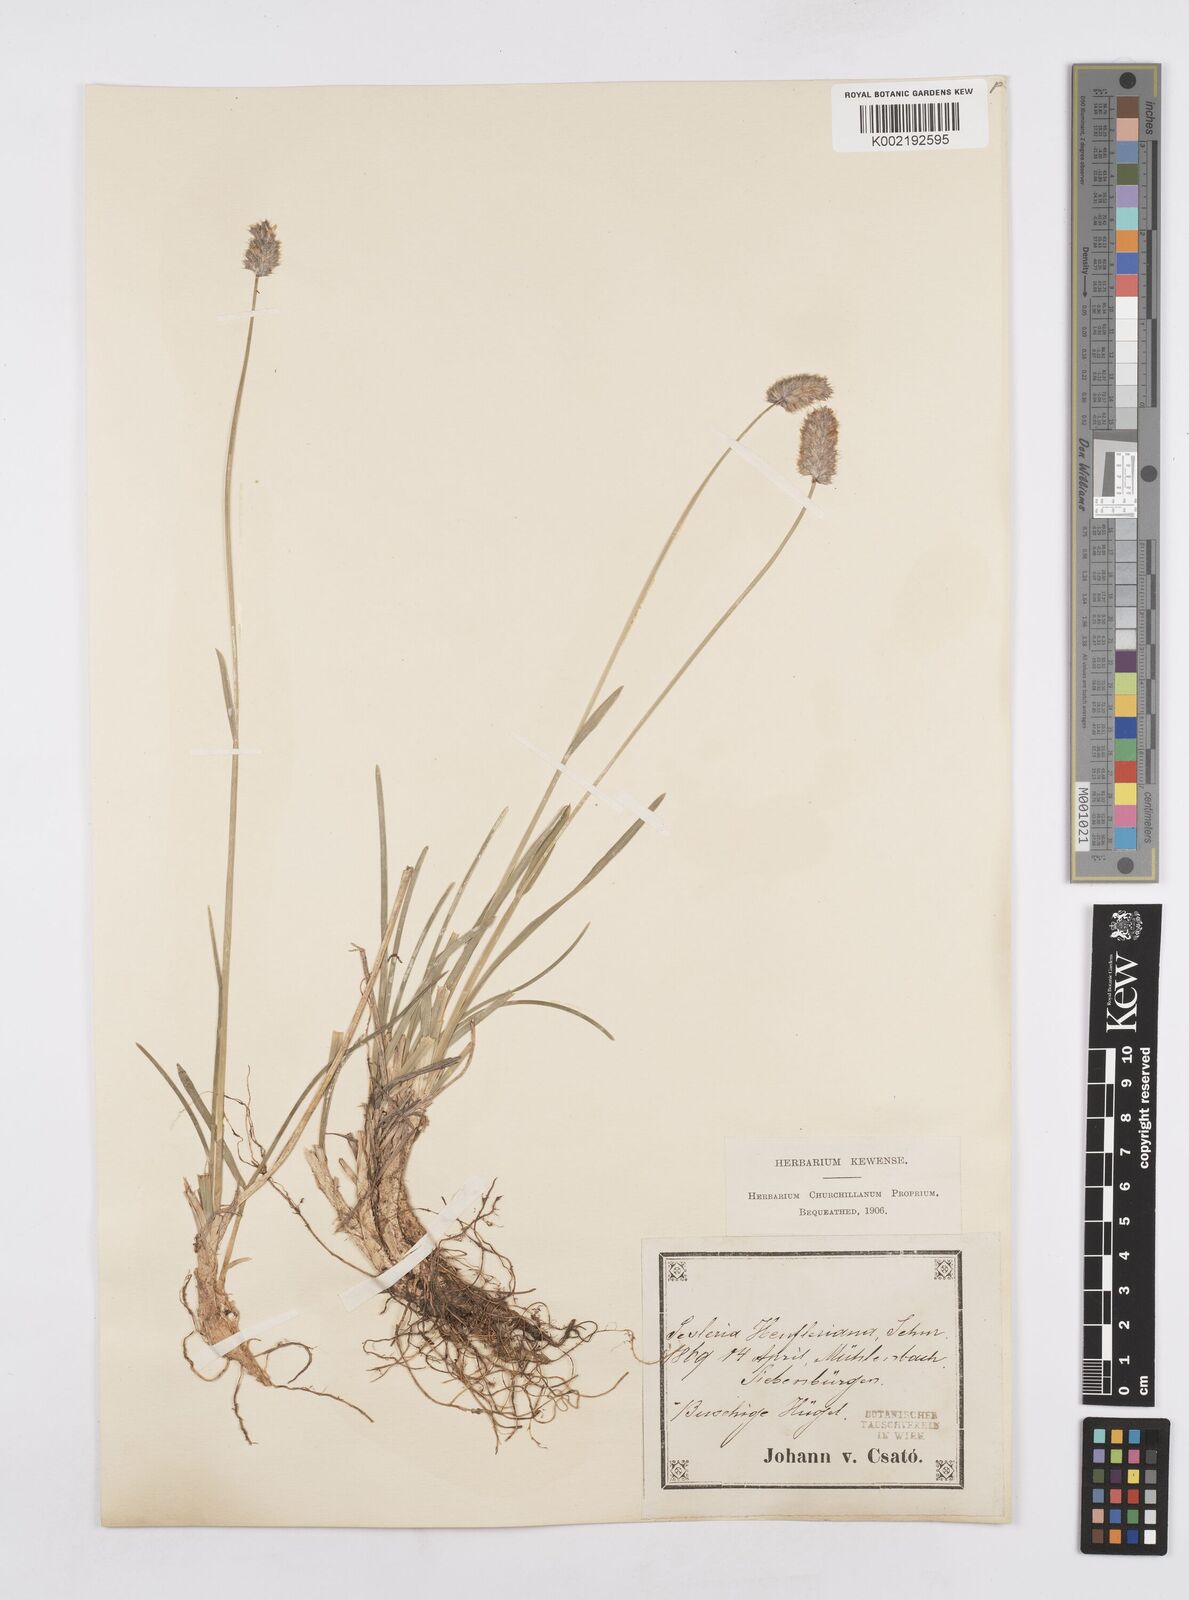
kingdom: Plantae
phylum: Tracheophyta
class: Liliopsida
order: Poales
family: Poaceae
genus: Sesleria
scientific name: Sesleria heufleriana
